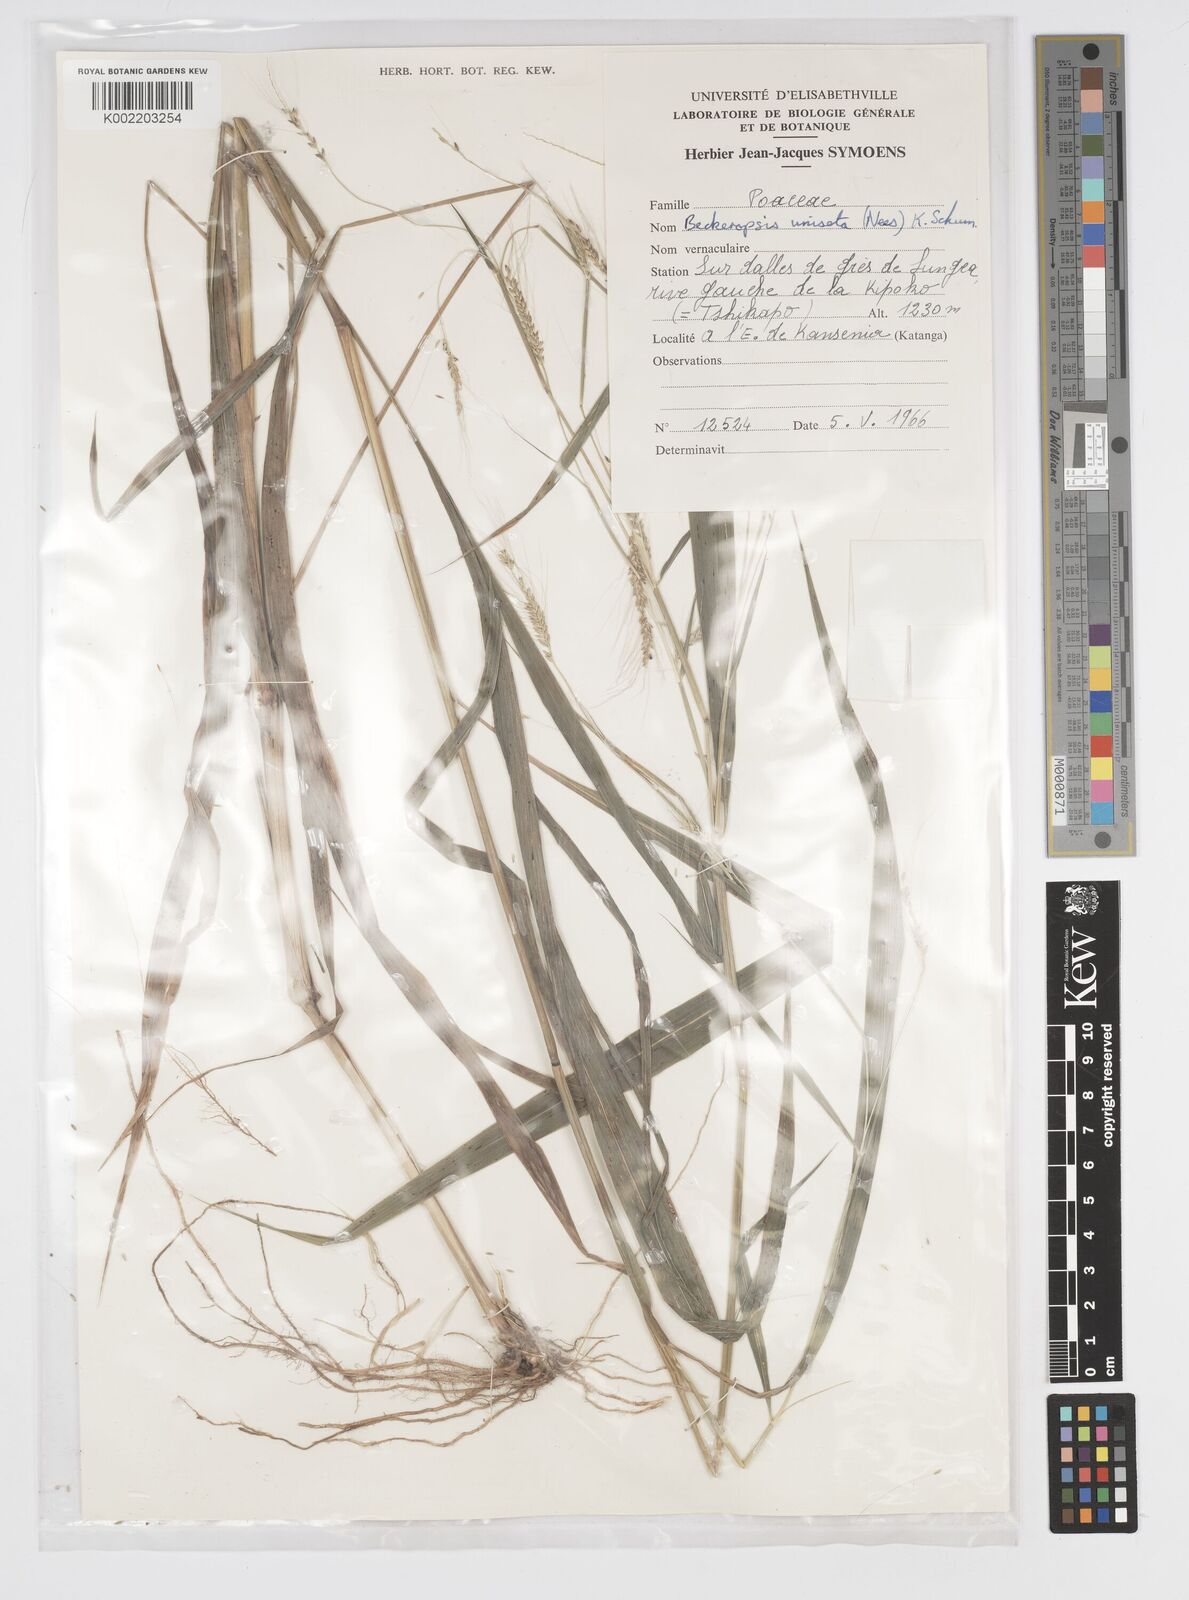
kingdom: Plantae
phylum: Tracheophyta
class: Liliopsida
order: Poales
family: Poaceae
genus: Cenchrus
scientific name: Cenchrus unisetus
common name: Natal grass
